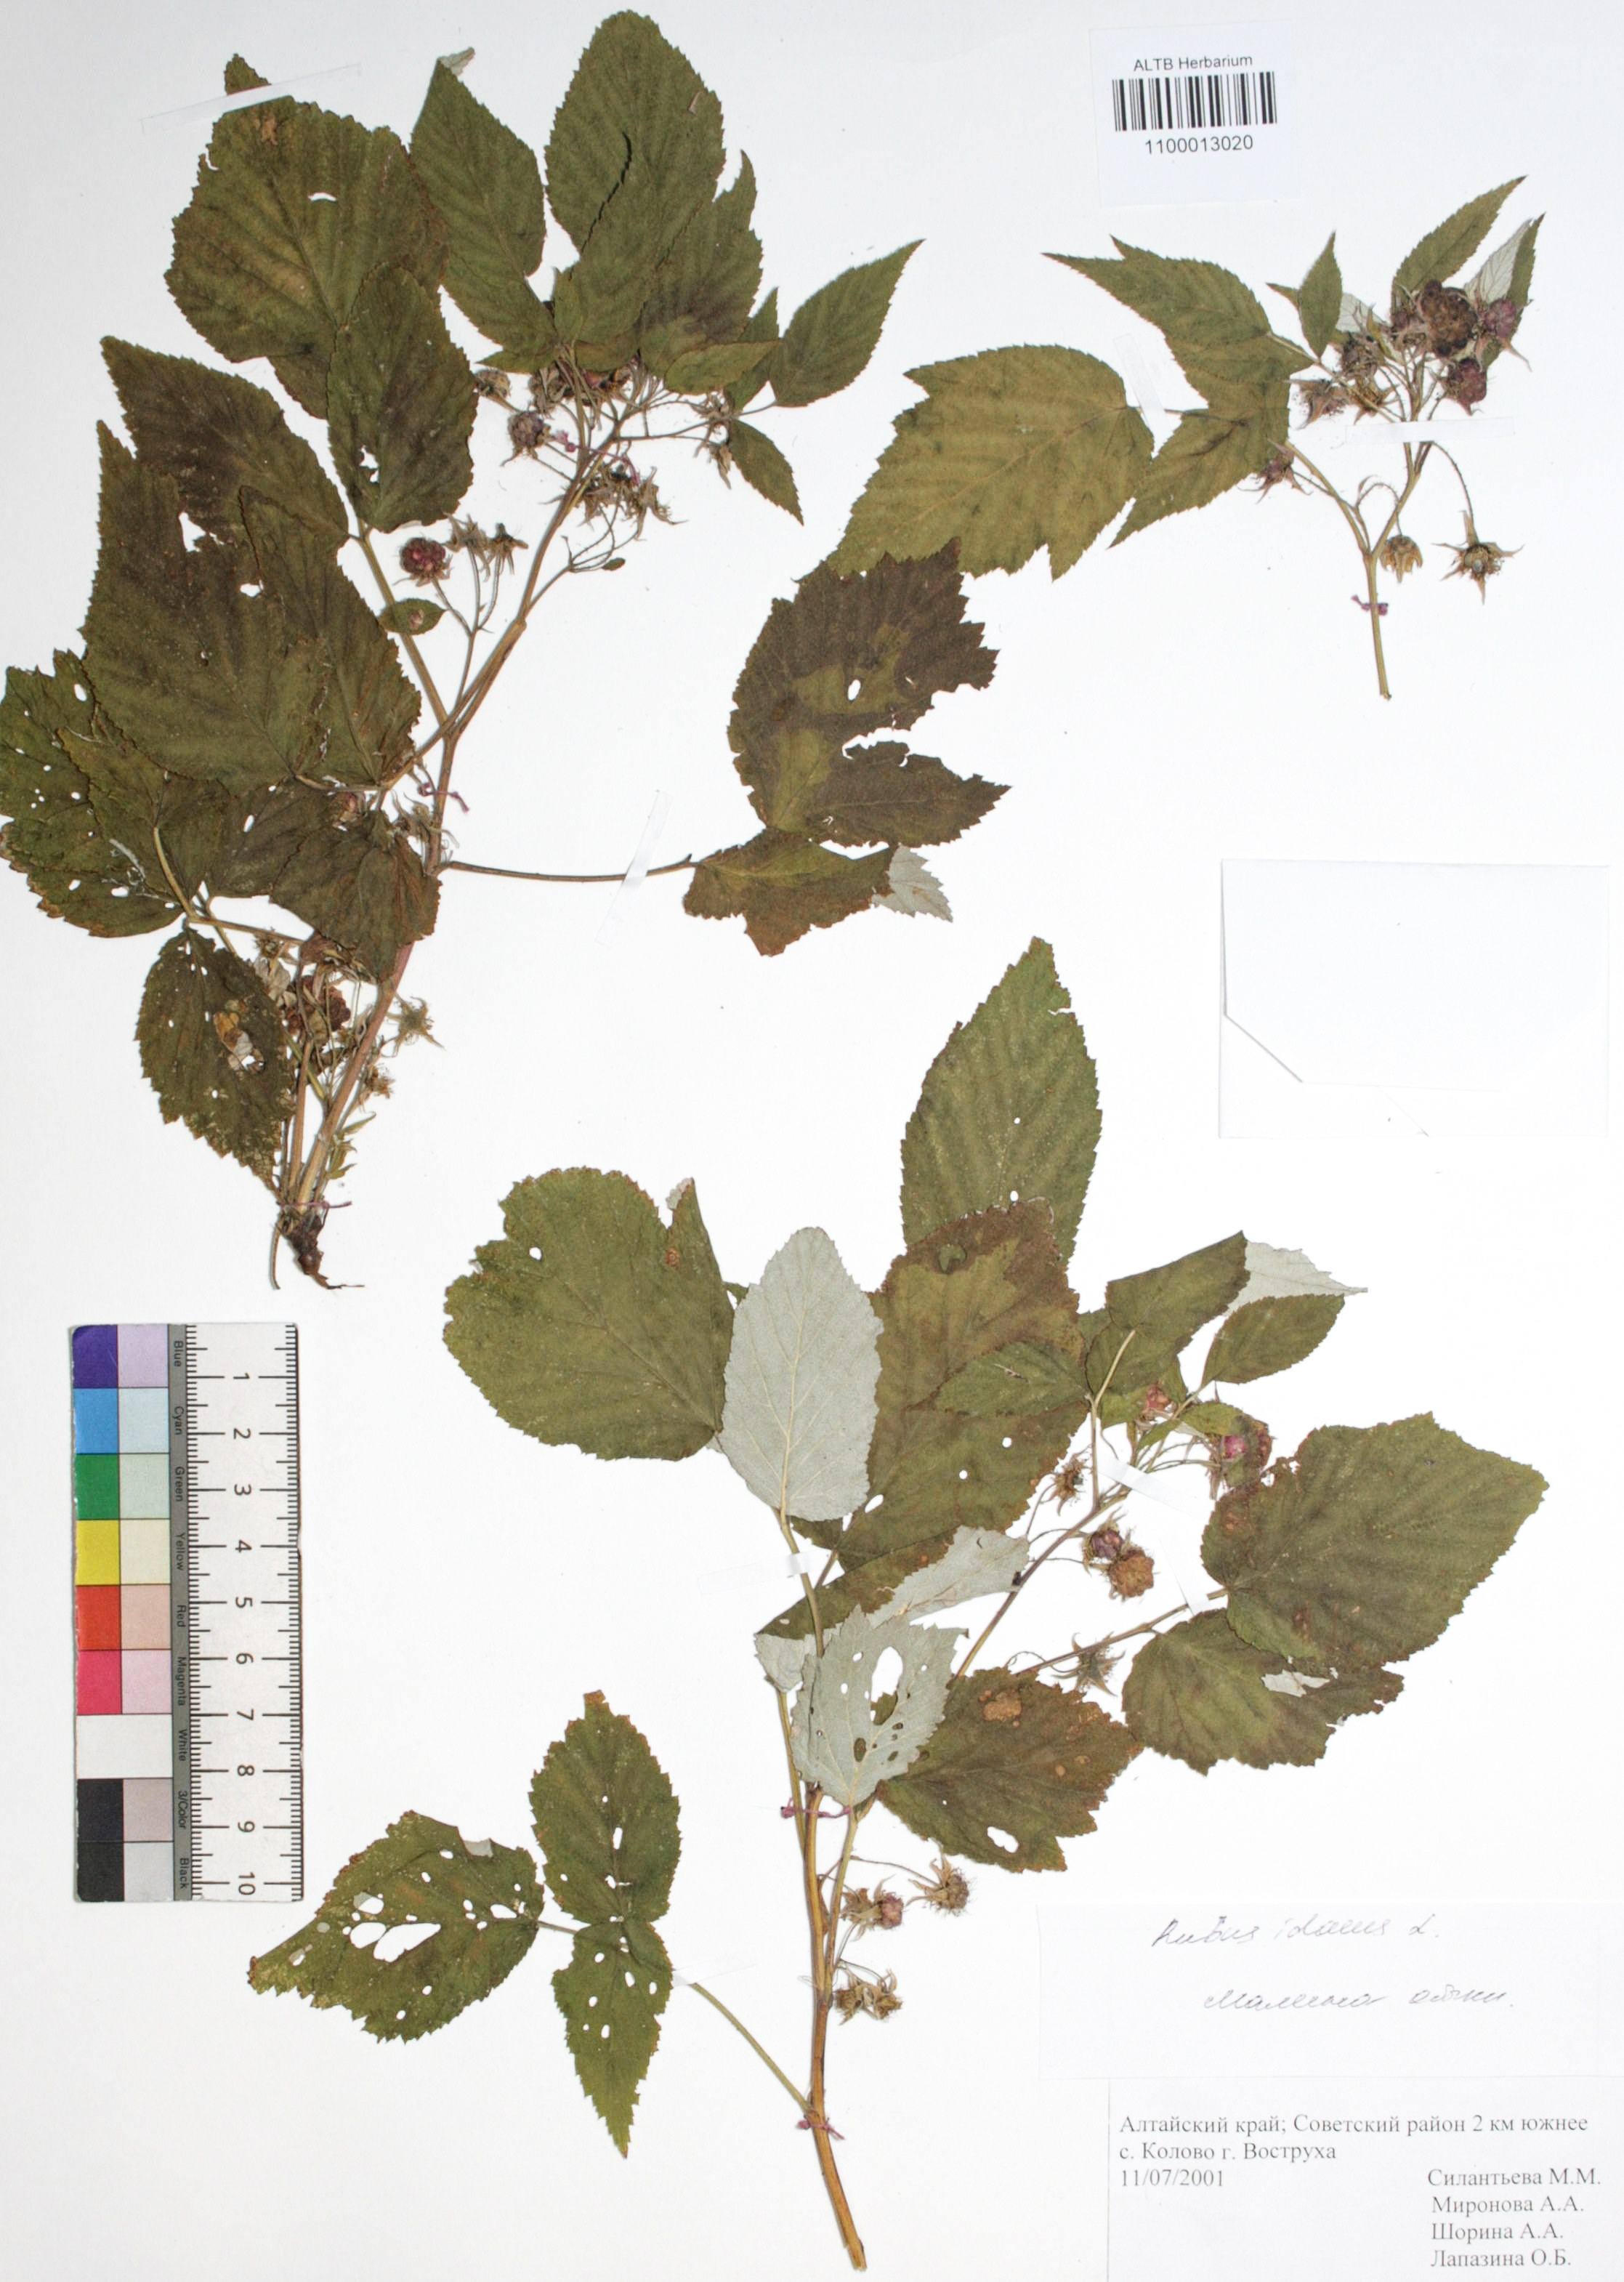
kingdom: Plantae
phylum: Tracheophyta
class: Magnoliopsida
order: Rosales
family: Rosaceae
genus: Rubus
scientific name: Rubus idaeus
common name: Raspberry
